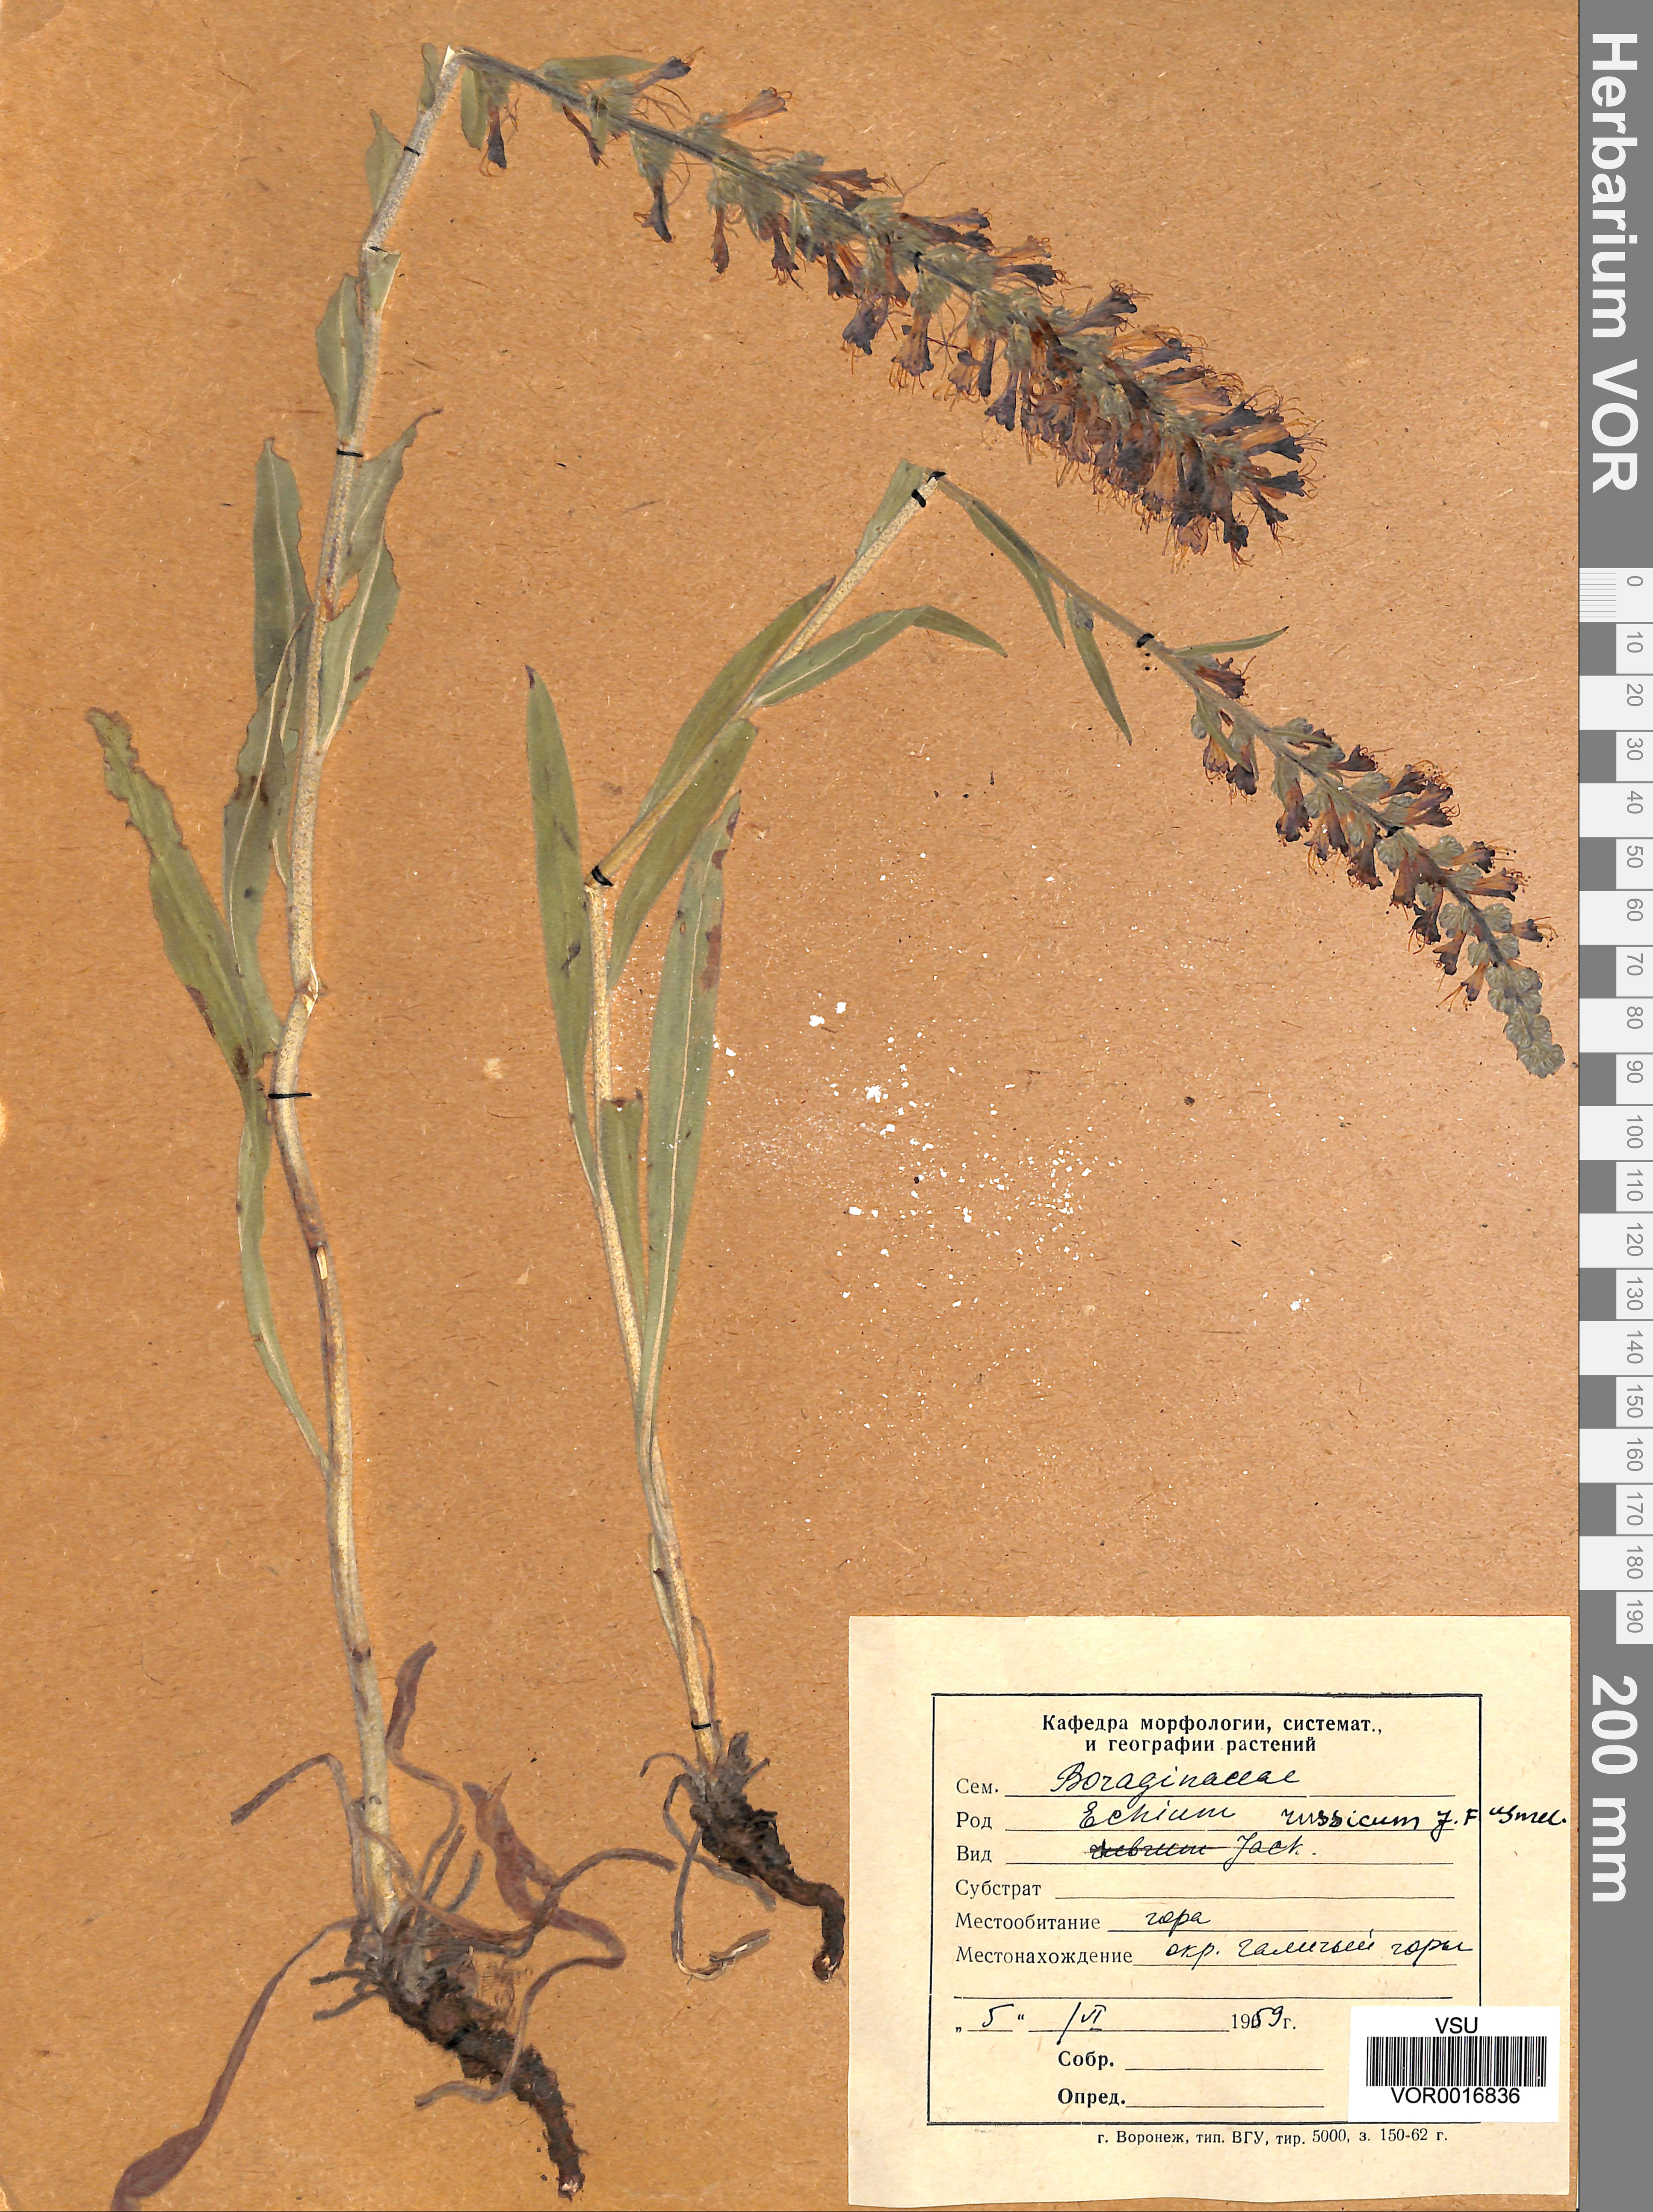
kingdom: Plantae
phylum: Tracheophyta
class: Magnoliopsida
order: Boraginales
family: Boraginaceae
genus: Pontechium
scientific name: Pontechium maculatum
